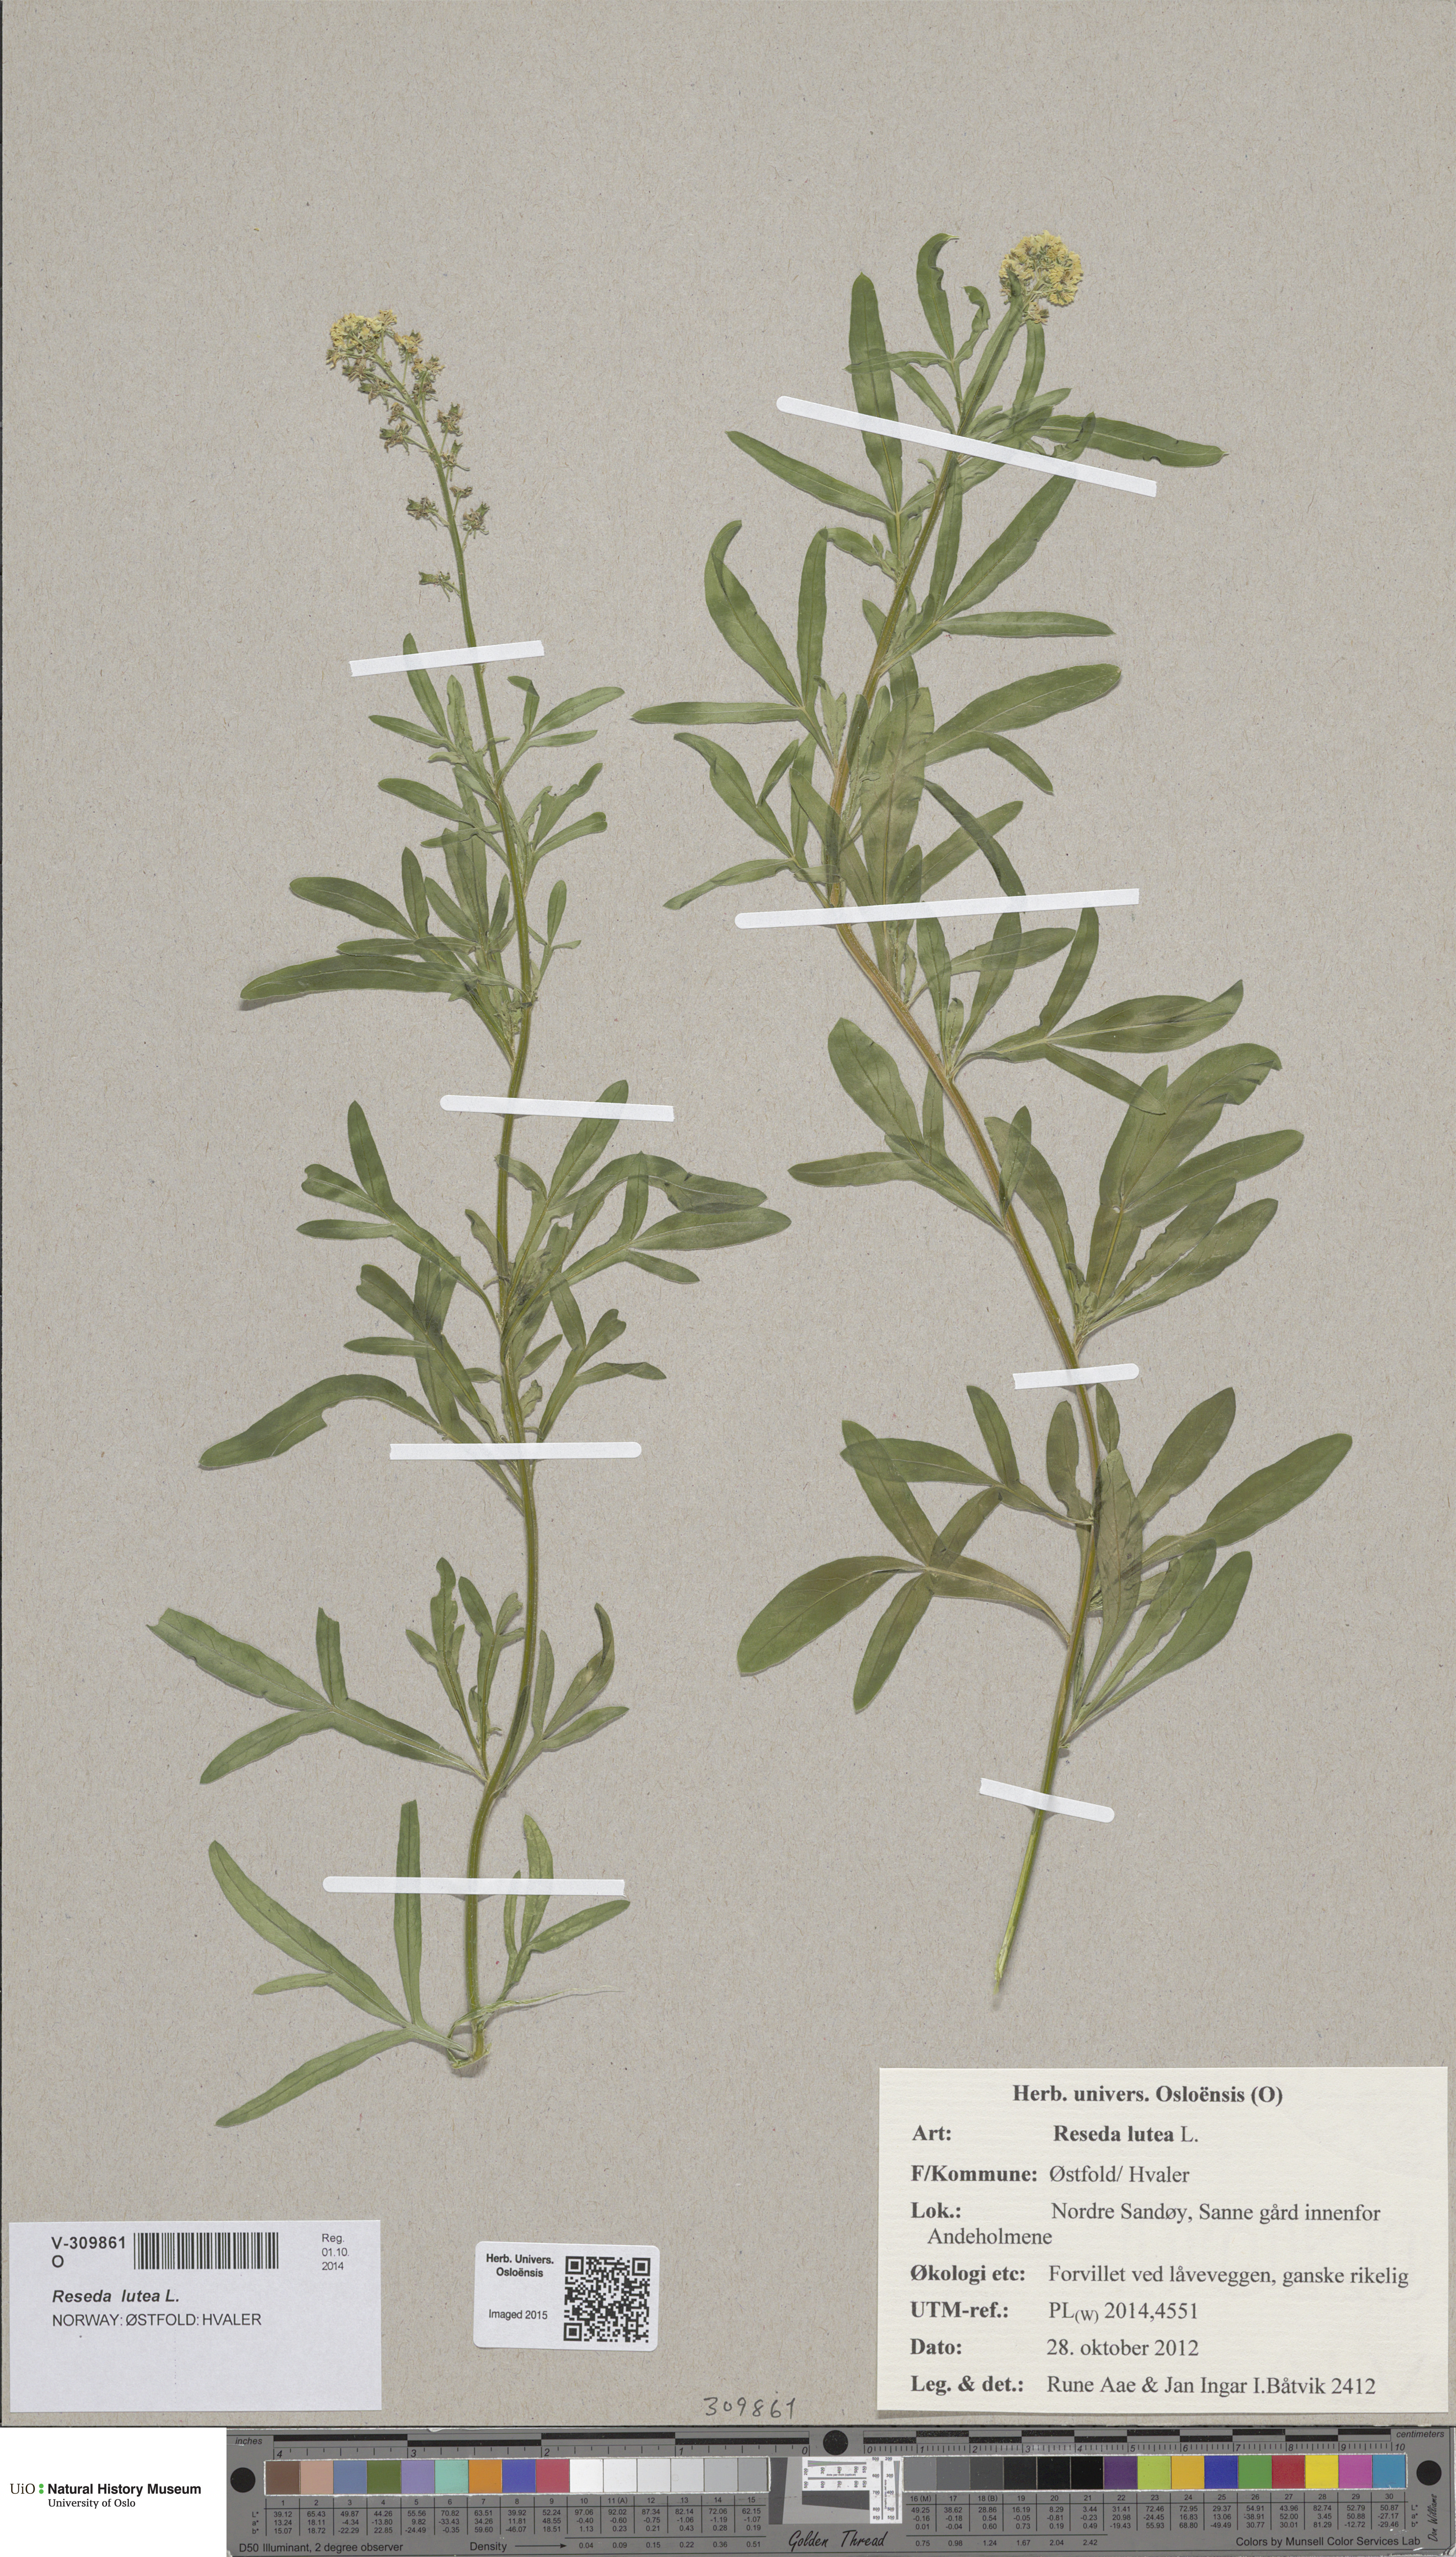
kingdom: Plantae
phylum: Tracheophyta
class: Magnoliopsida
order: Brassicales
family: Resedaceae
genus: Reseda
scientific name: Reseda lutea
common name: Wild mignonette
